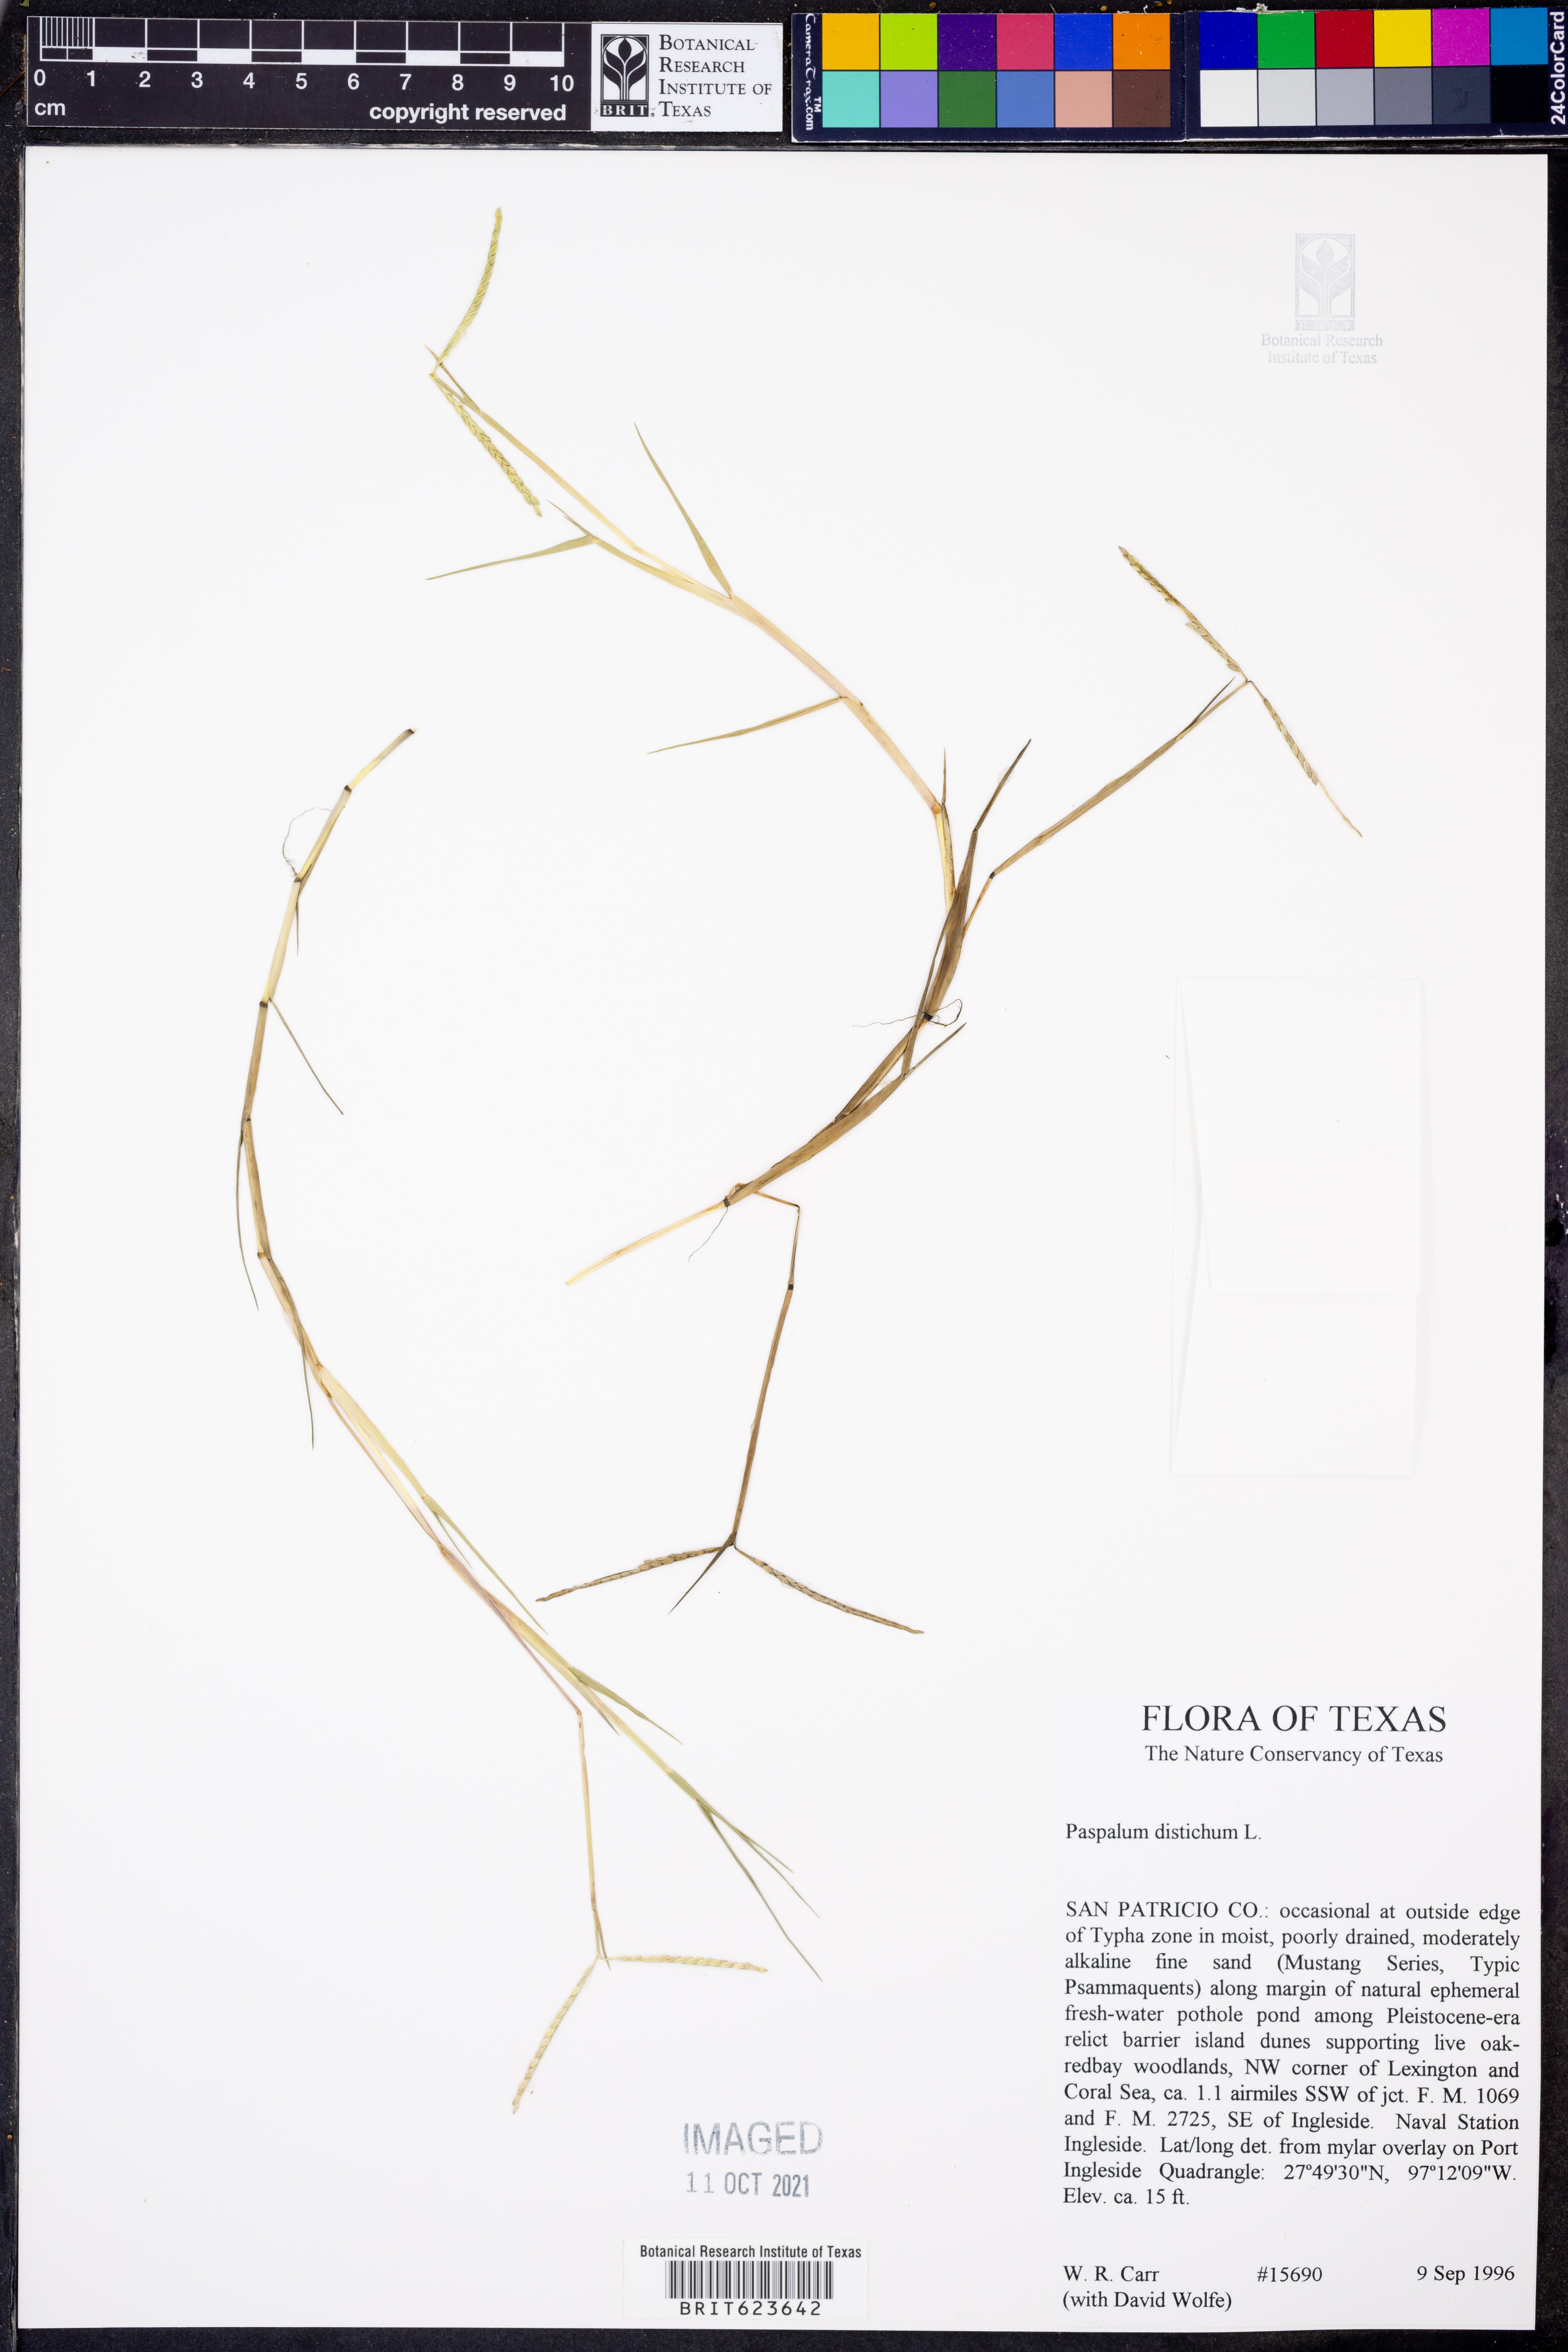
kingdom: Plantae
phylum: Tracheophyta
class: Liliopsida
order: Poales
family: Poaceae
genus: Paspalum
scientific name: Paspalum distichum
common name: Knotgrass
